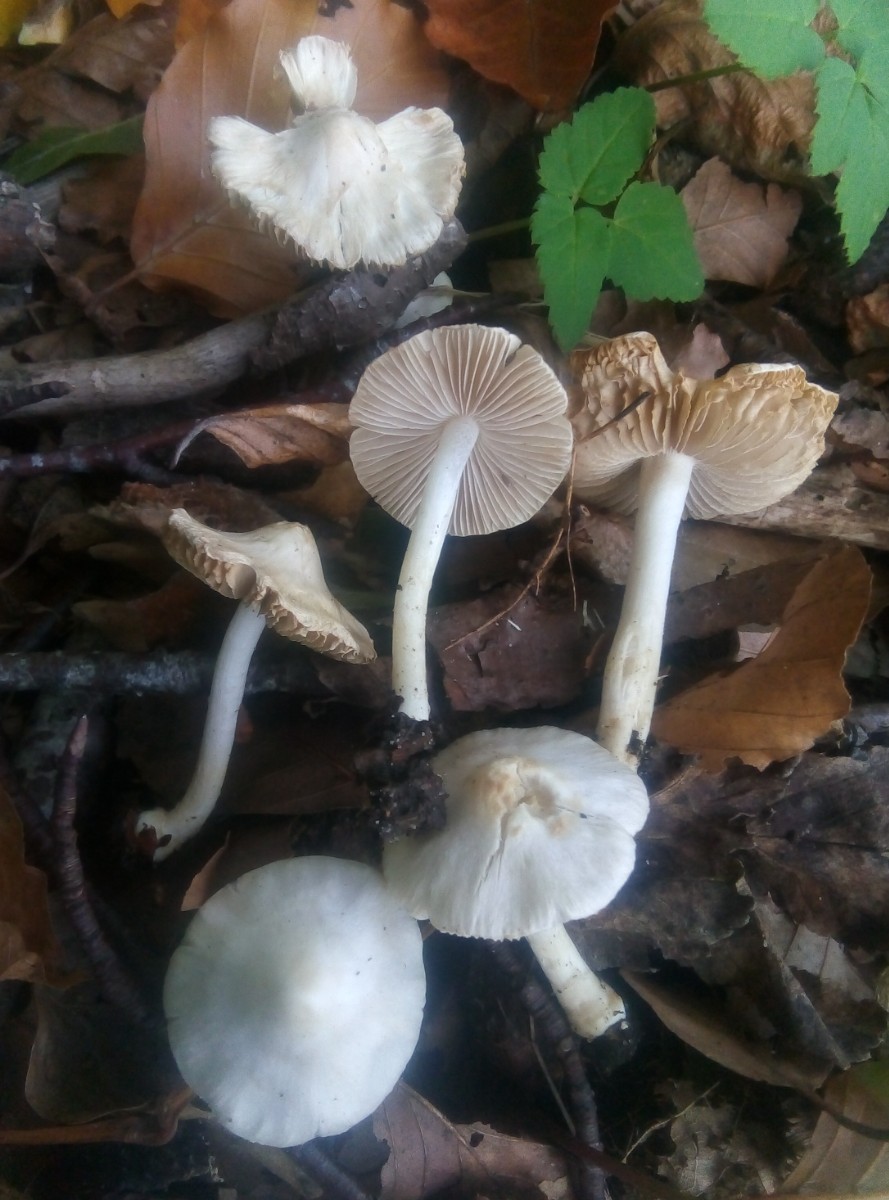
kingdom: Fungi
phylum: Basidiomycota
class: Agaricomycetes
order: Agaricales
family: Inocybaceae
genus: Inocybe
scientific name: Inocybe
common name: almindelig trævlhat
